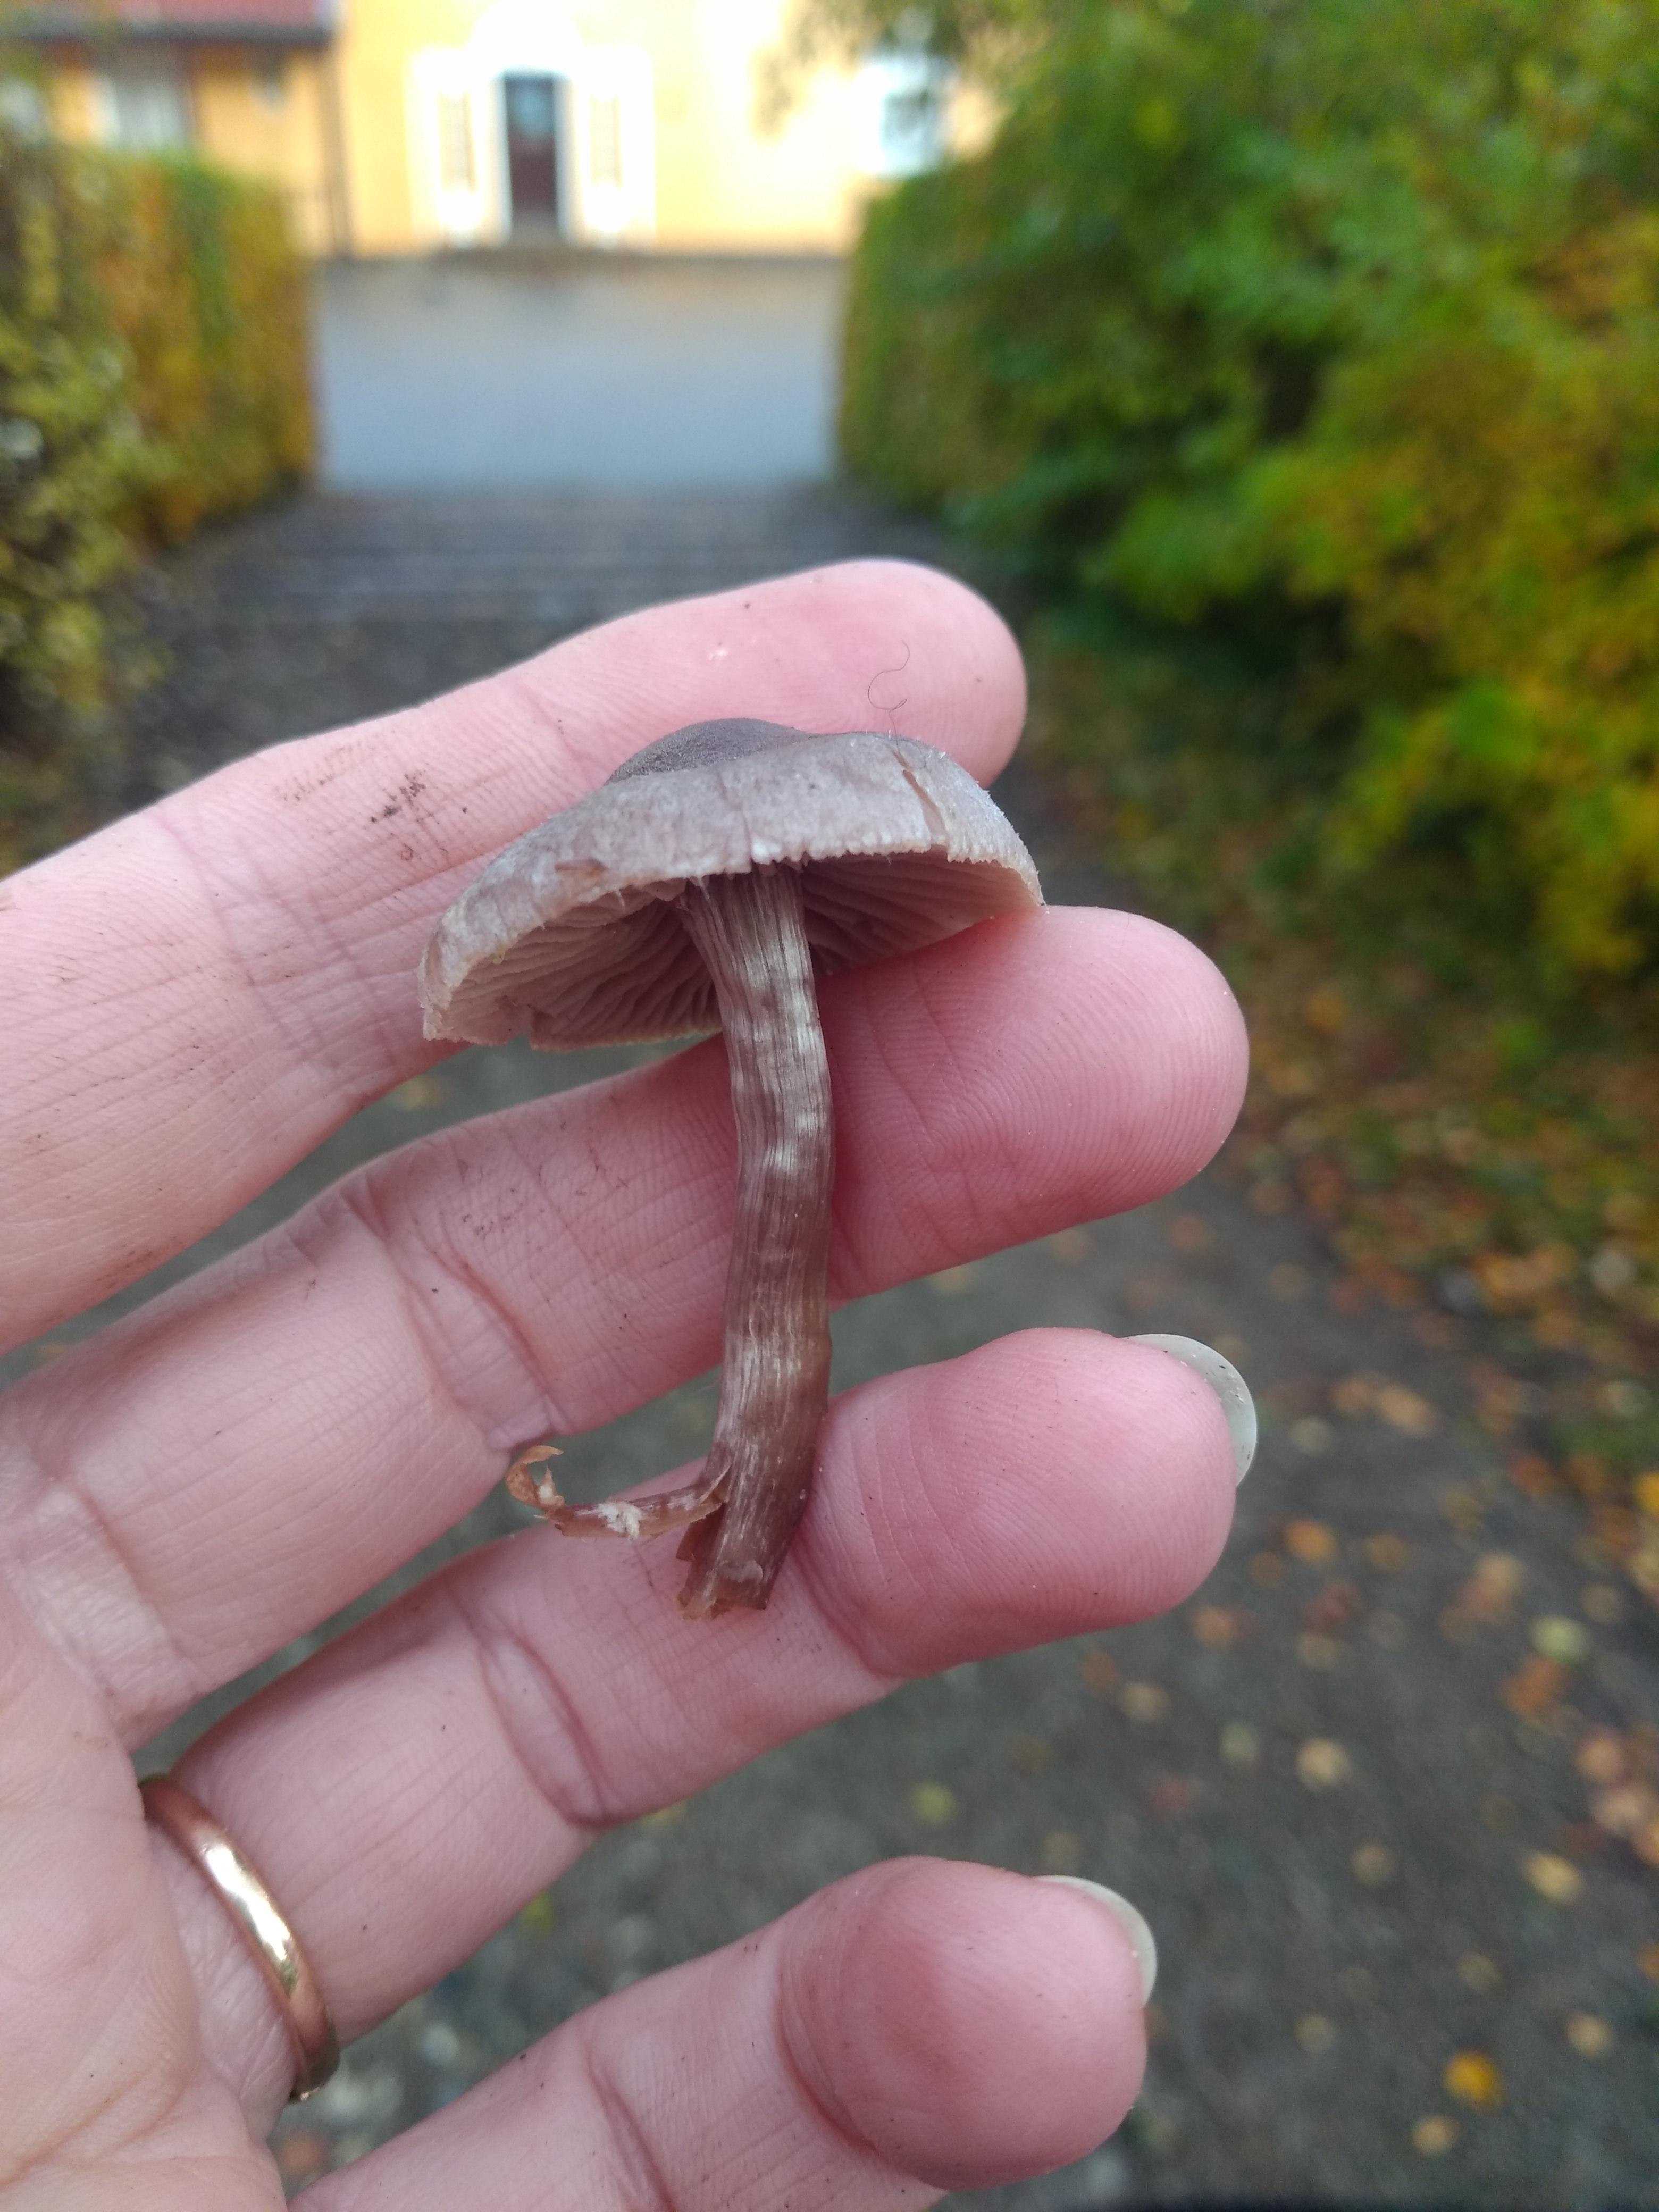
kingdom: Fungi
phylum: Basidiomycota
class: Agaricomycetes
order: Agaricales
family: Cortinariaceae
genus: Cortinarius
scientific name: Cortinarius
